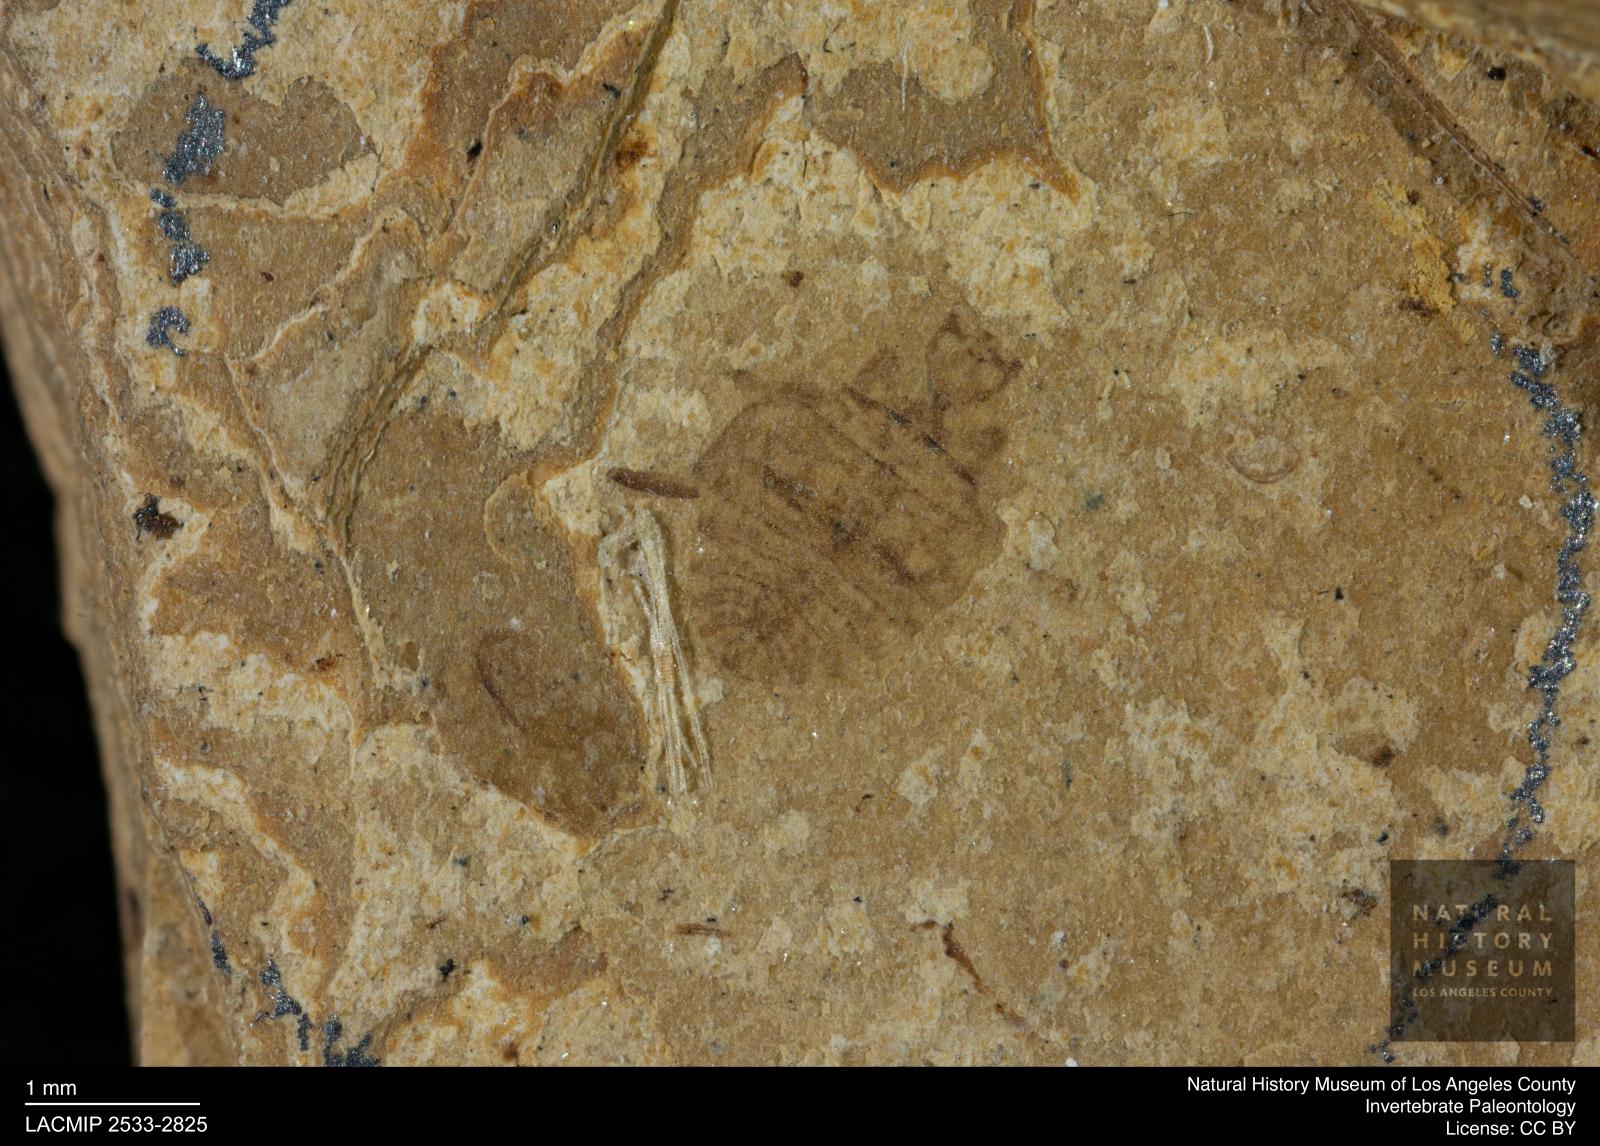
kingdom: Animalia
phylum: Arthropoda
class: Insecta
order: Hemiptera
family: Naucoridae
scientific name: Naucoridae
